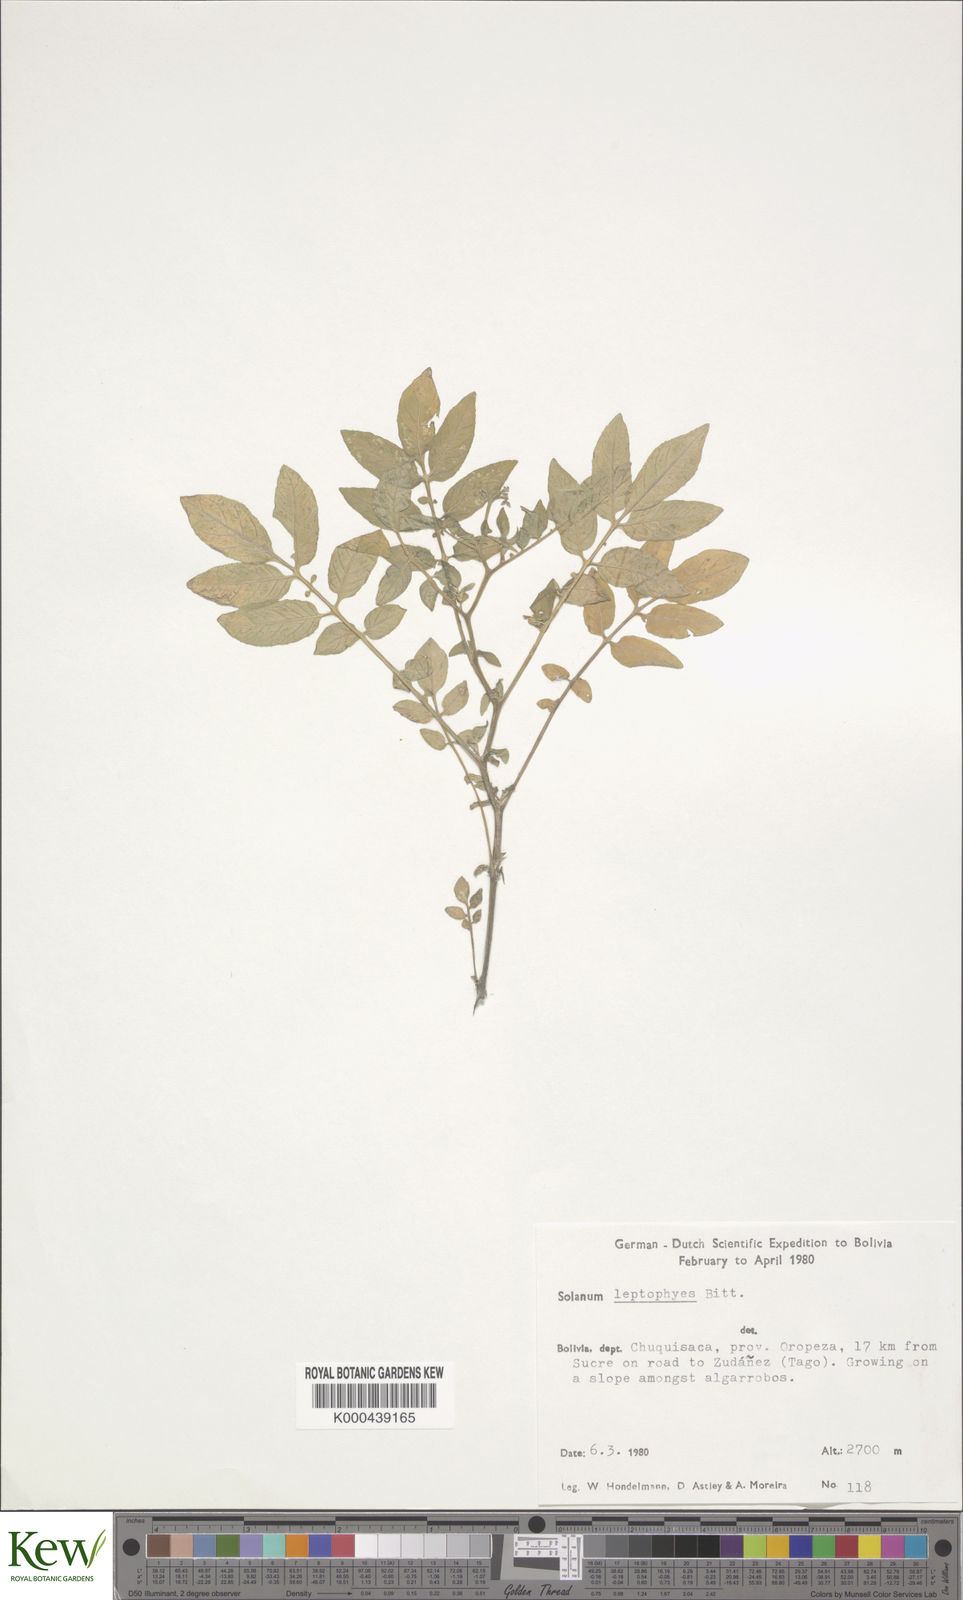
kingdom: Plantae
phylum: Tracheophyta
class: Magnoliopsida
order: Solanales
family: Solanaceae
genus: Solanum
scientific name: Solanum brevicaule
